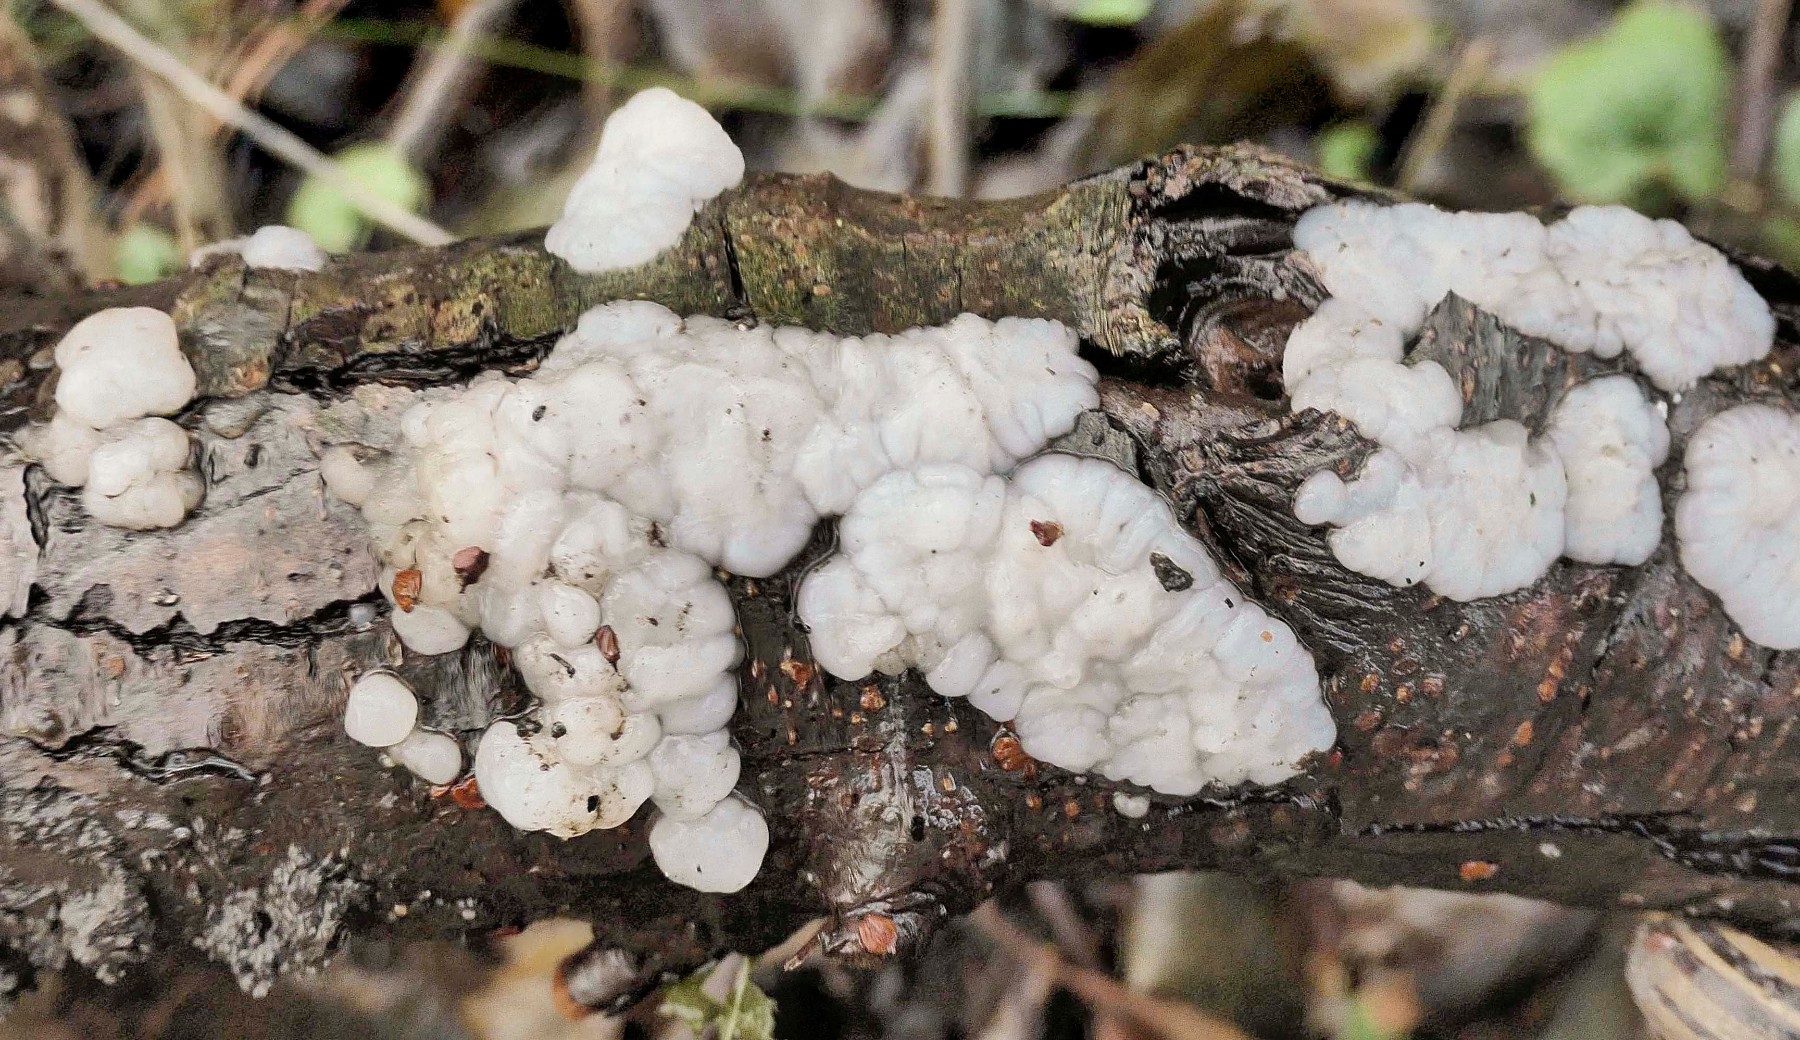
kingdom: Fungi
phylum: Basidiomycota
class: Agaricomycetes
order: Auriculariales
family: Auriculariaceae
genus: Exidia
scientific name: Exidia thuretiana
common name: hvidlig bævretop
